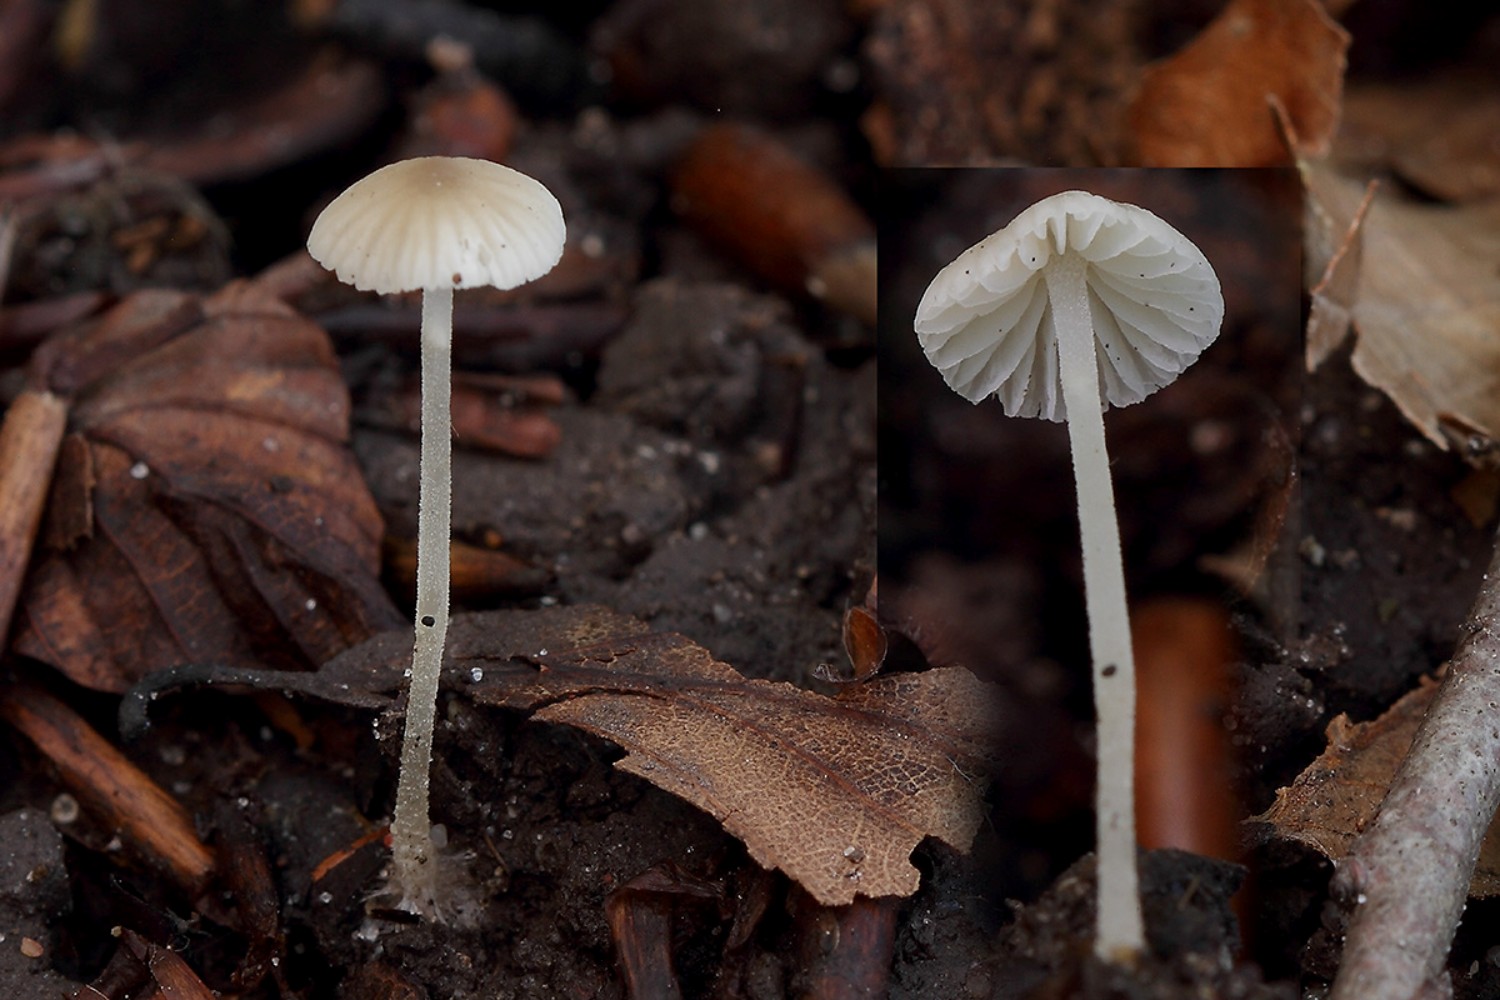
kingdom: Fungi
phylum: Basidiomycota
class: Agaricomycetes
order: Agaricales
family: Porotheleaceae
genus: Phloeomana
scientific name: Phloeomana hiemalis
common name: sen huesvamp
